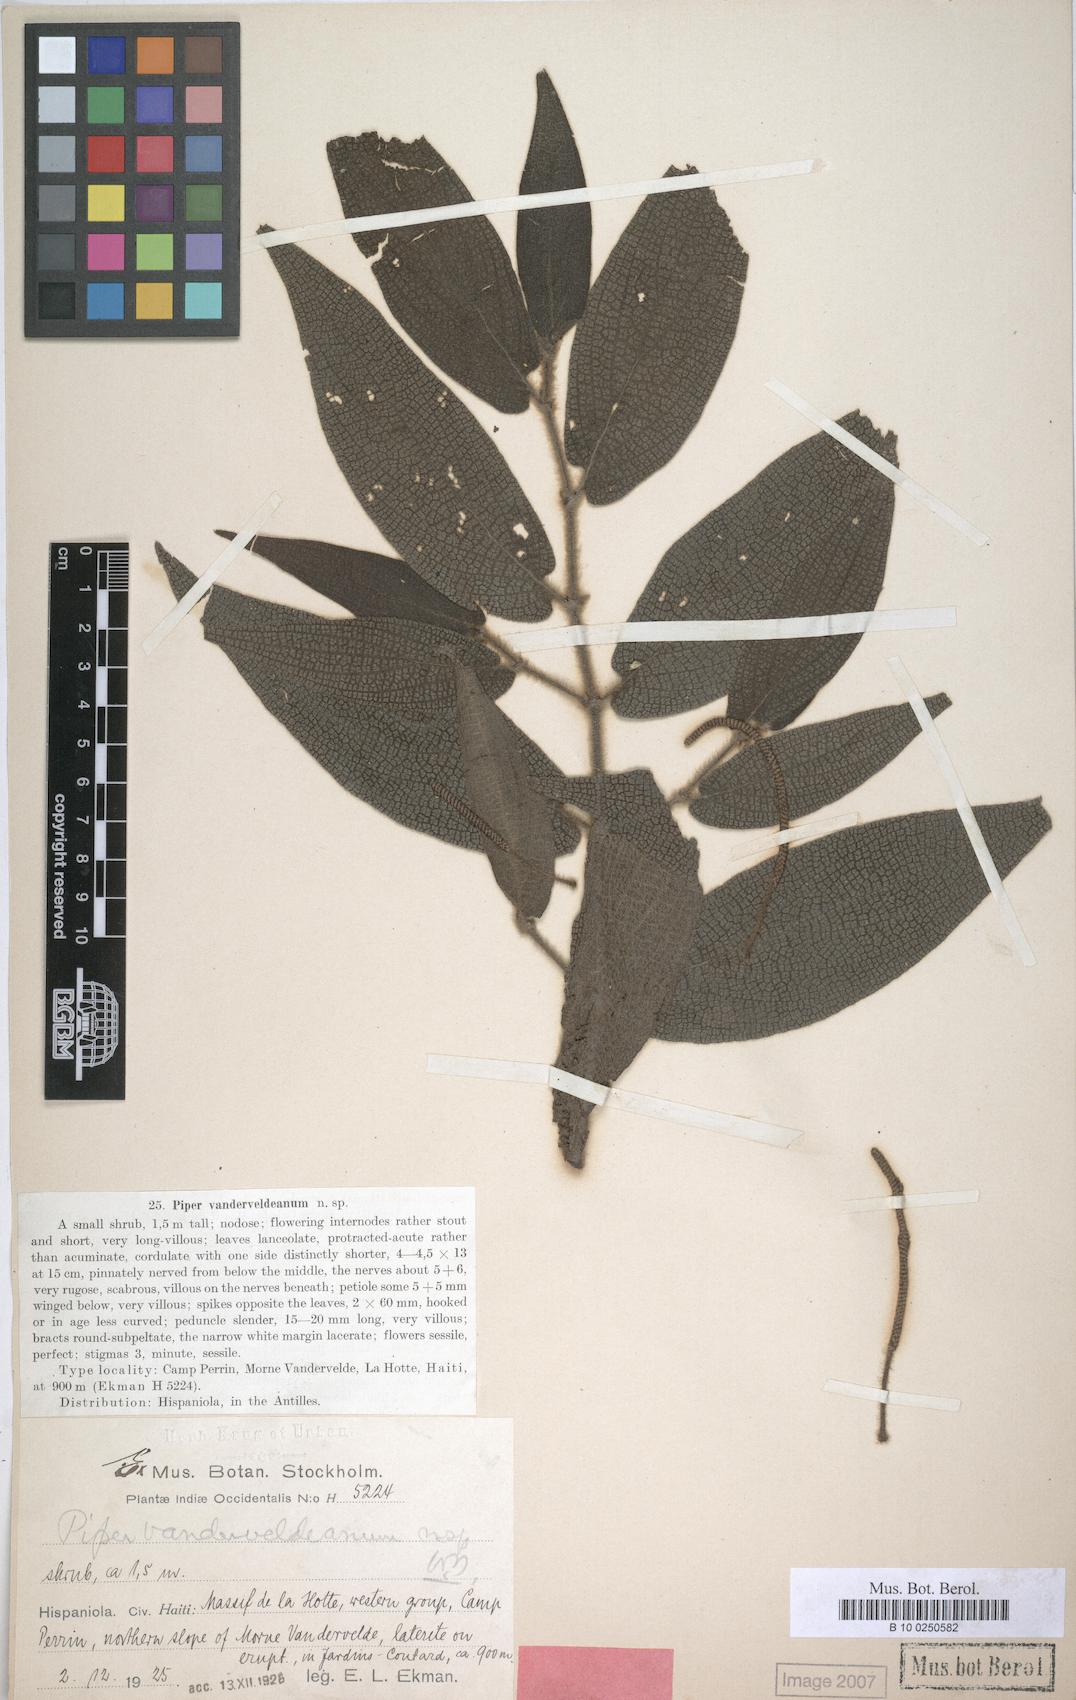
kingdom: Plantae
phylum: Tracheophyta
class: Magnoliopsida
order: Piperales
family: Piperaceae
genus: Piper
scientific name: Piper vanderveldeanum
